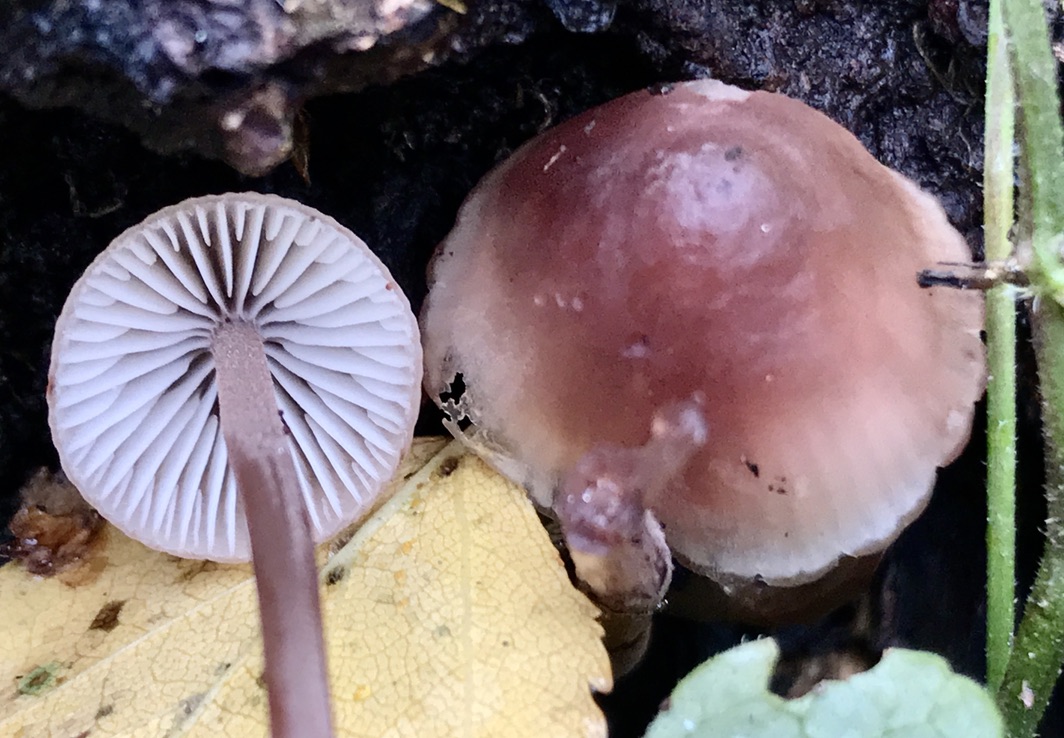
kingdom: Fungi
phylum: Basidiomycota
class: Agaricomycetes
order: Agaricales
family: Mycenaceae
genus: Mycena
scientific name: Mycena haematopus
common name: blødende huesvamp
